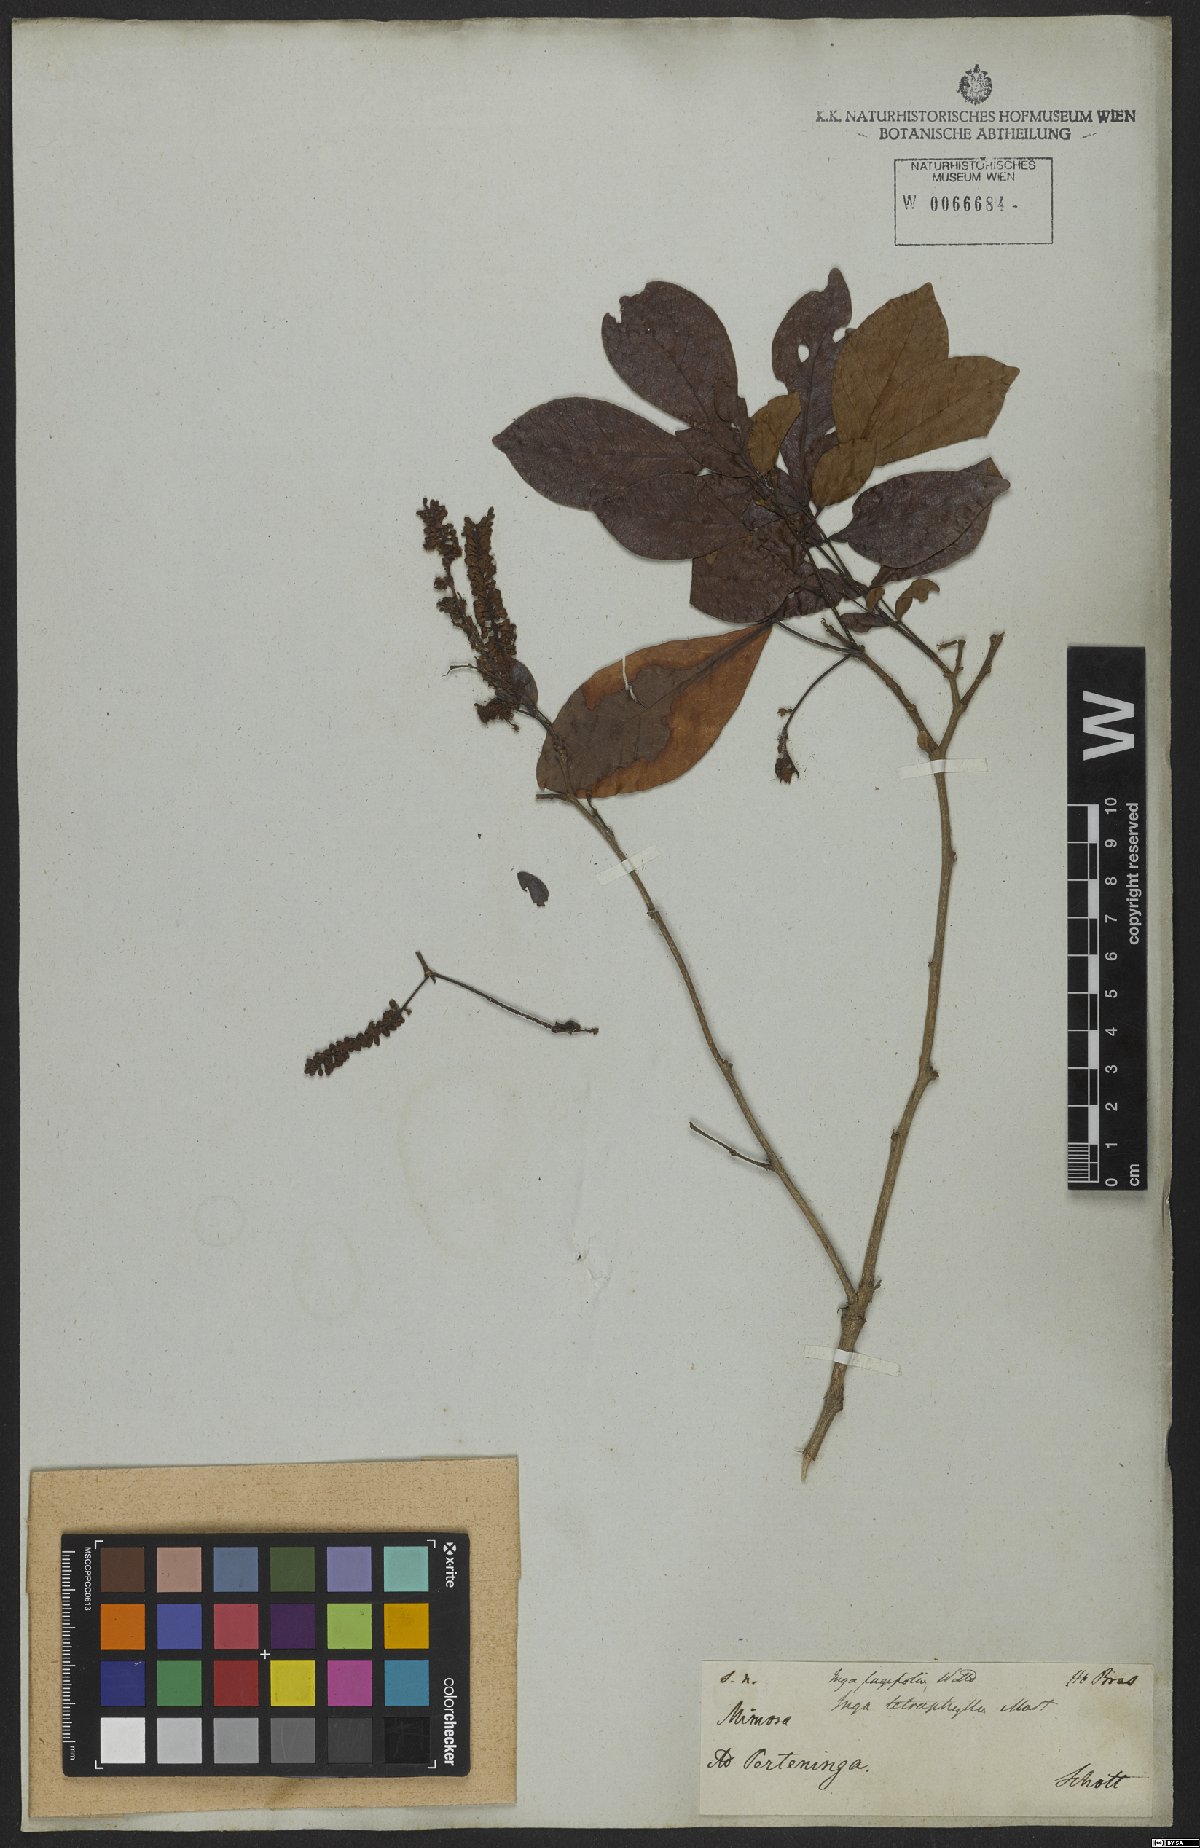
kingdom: Plantae
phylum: Tracheophyta
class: Magnoliopsida
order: Fabales
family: Fabaceae
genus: Inga
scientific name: Inga laurina
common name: Red wood
